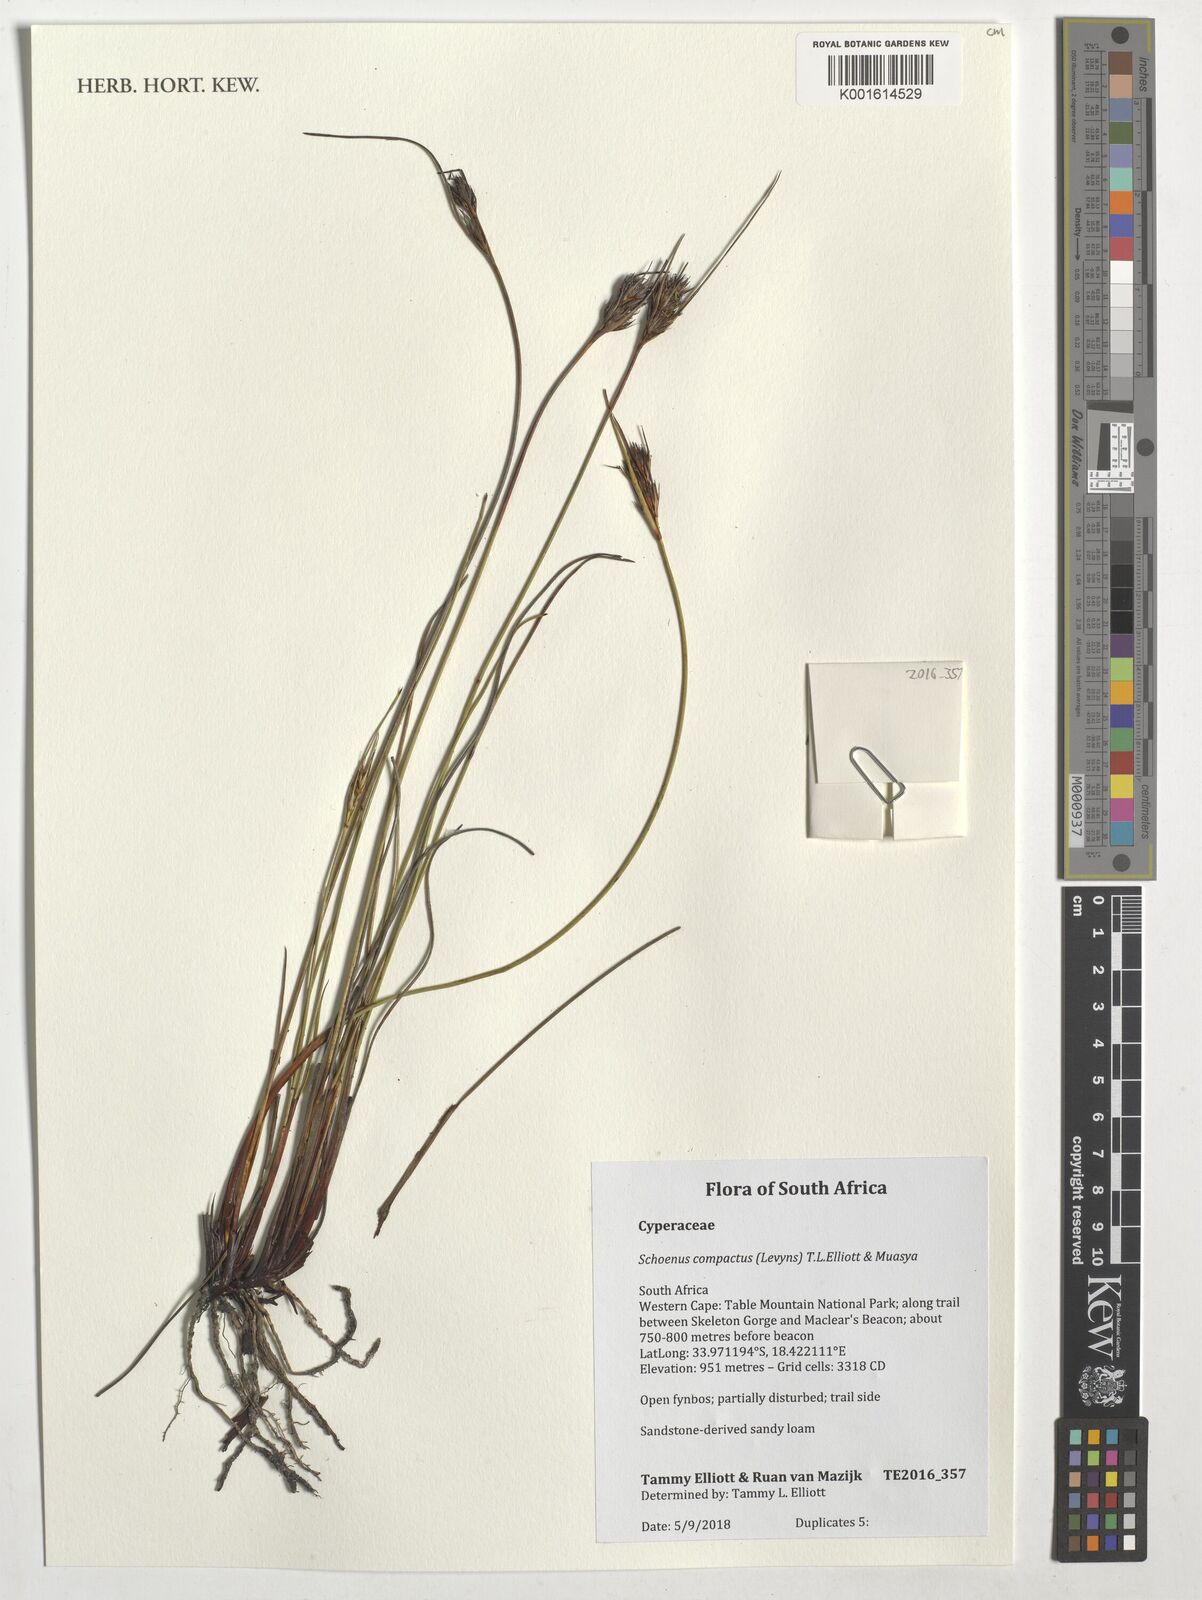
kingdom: Plantae
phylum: Tracheophyta
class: Liliopsida
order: Poales
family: Cyperaceae
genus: Schoenus
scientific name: Schoenus compactus
